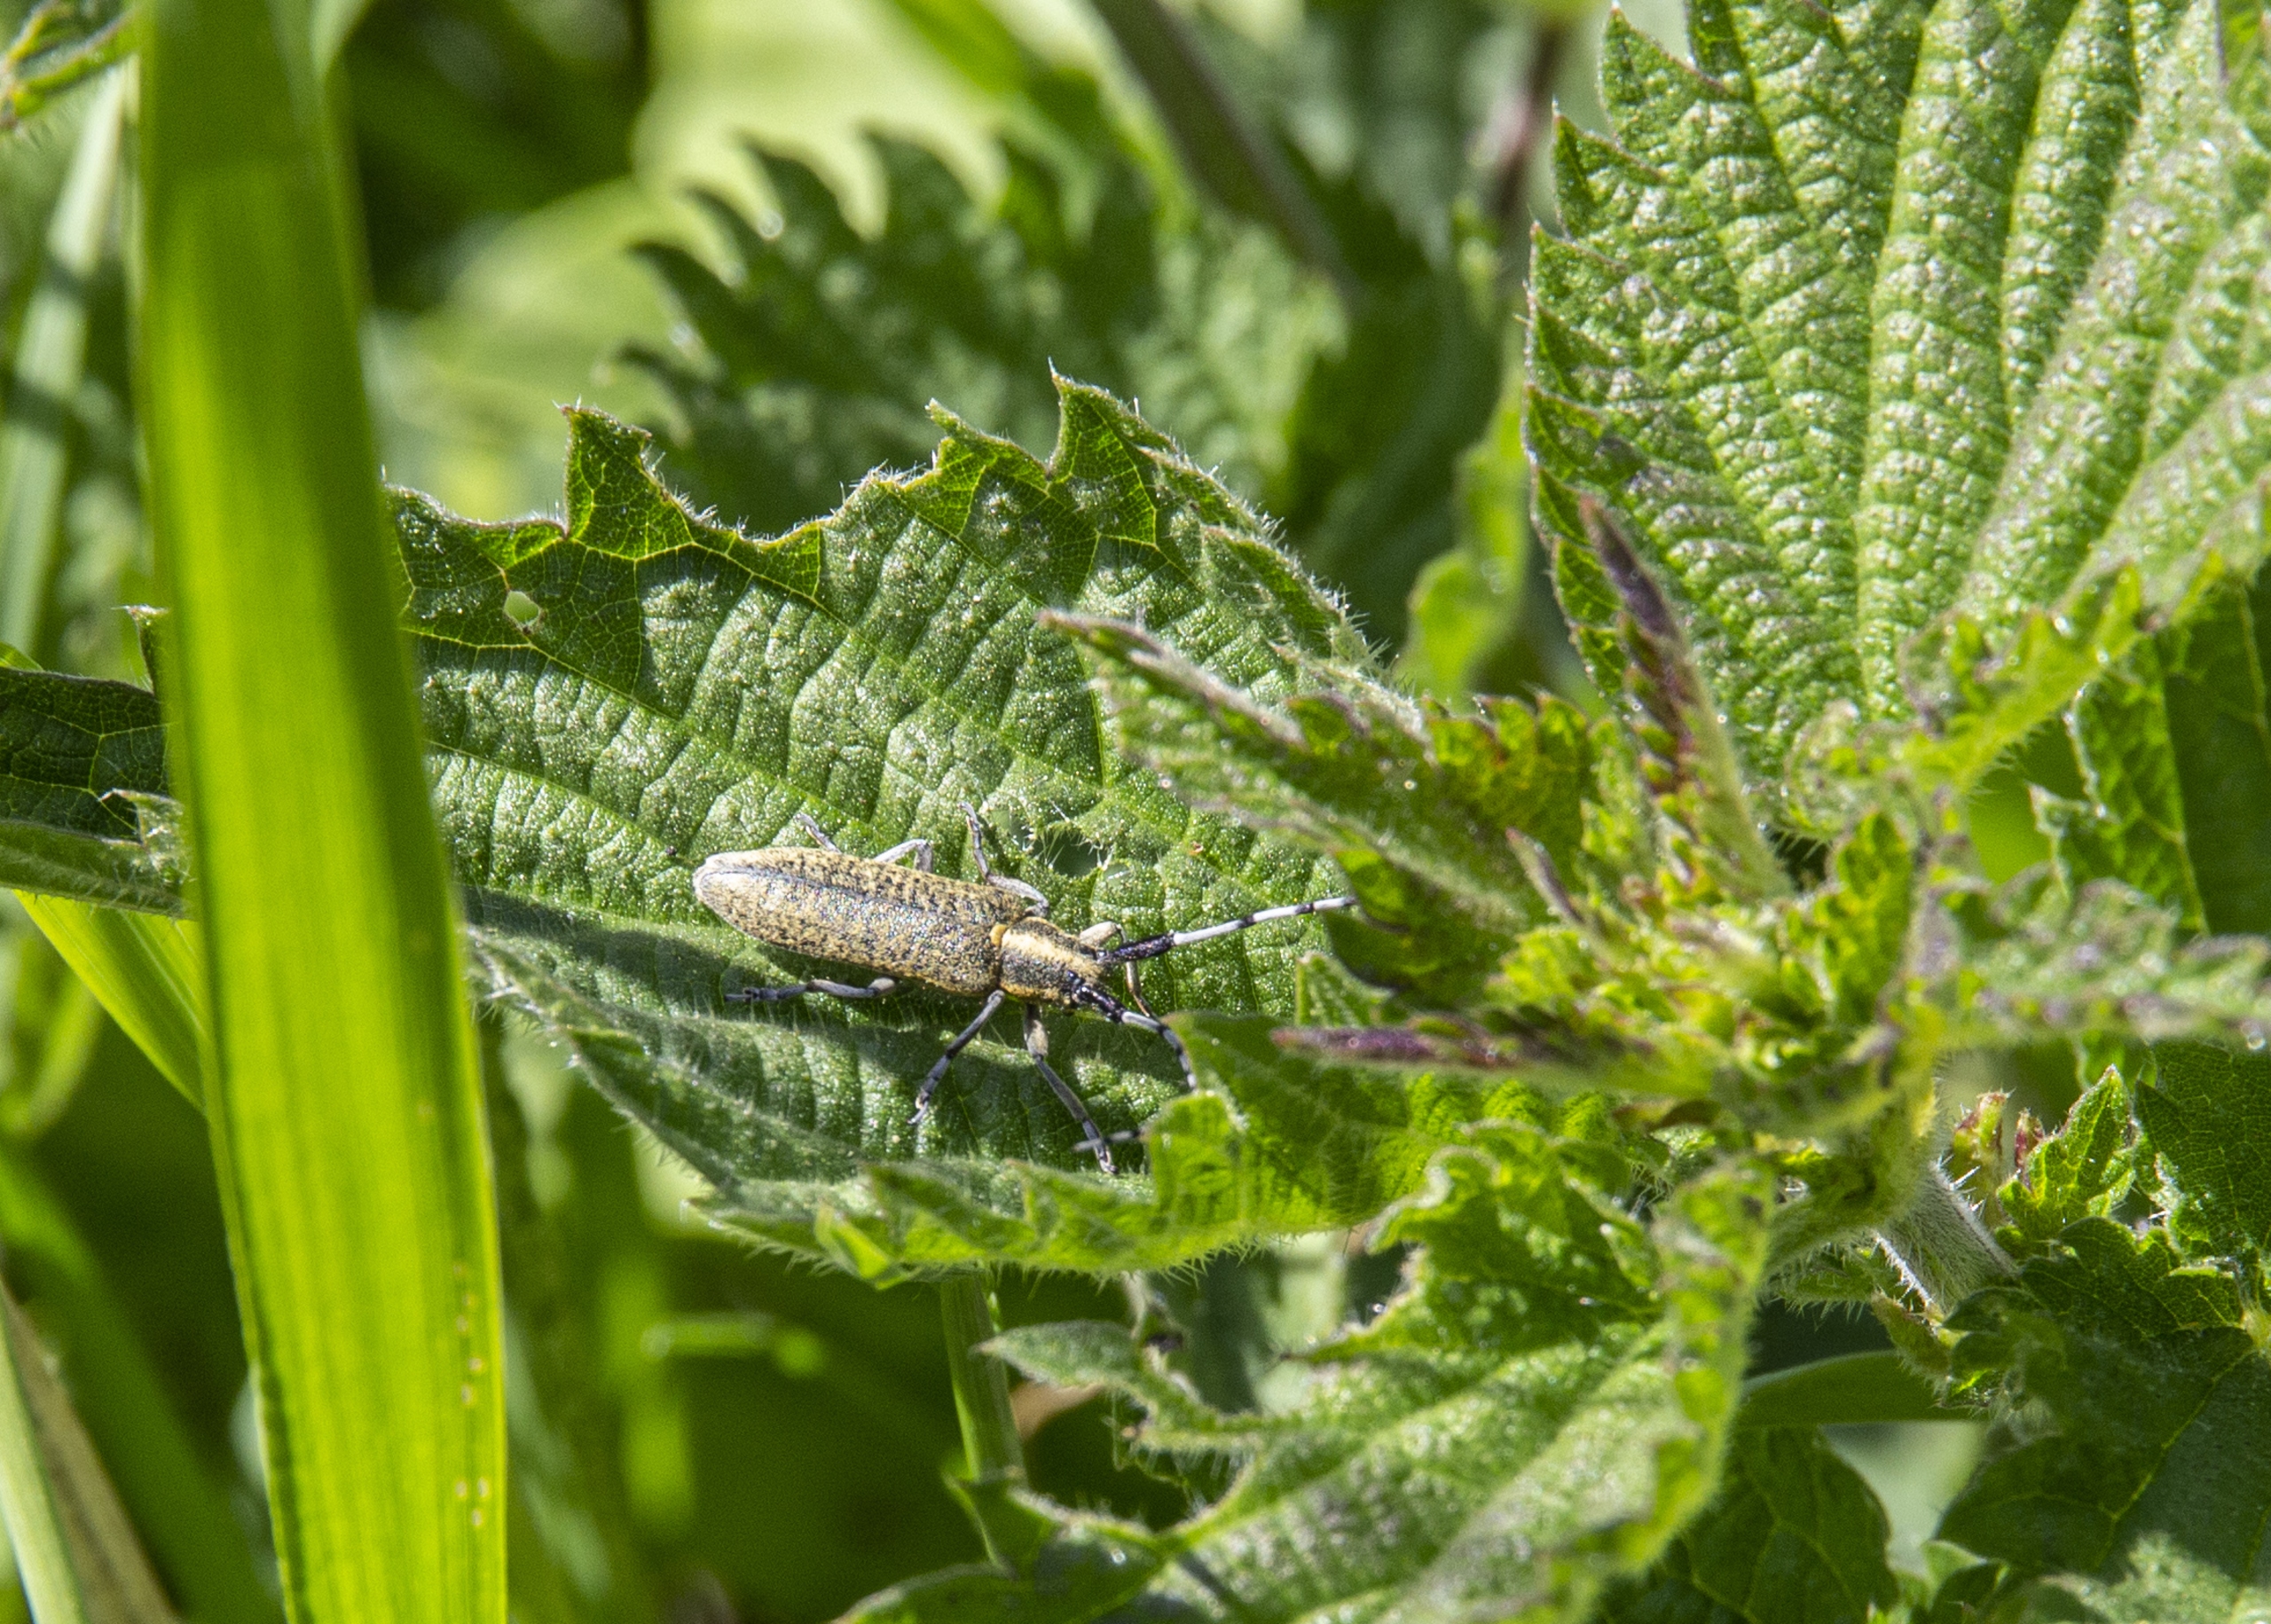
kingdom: Animalia
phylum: Arthropoda
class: Insecta
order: Coleoptera
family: Cerambycidae
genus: Agapanthia
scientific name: Agapanthia villosoviridescens
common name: Tidselbuk
